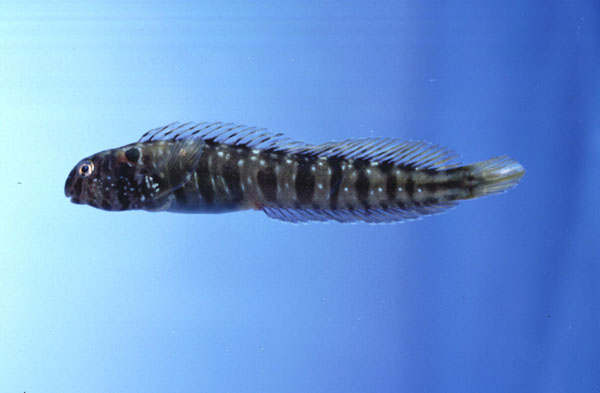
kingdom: Animalia
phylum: Chordata
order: Perciformes
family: Blenniidae
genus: Omobranchus
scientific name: Omobranchus banditus
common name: Bandit blenny
